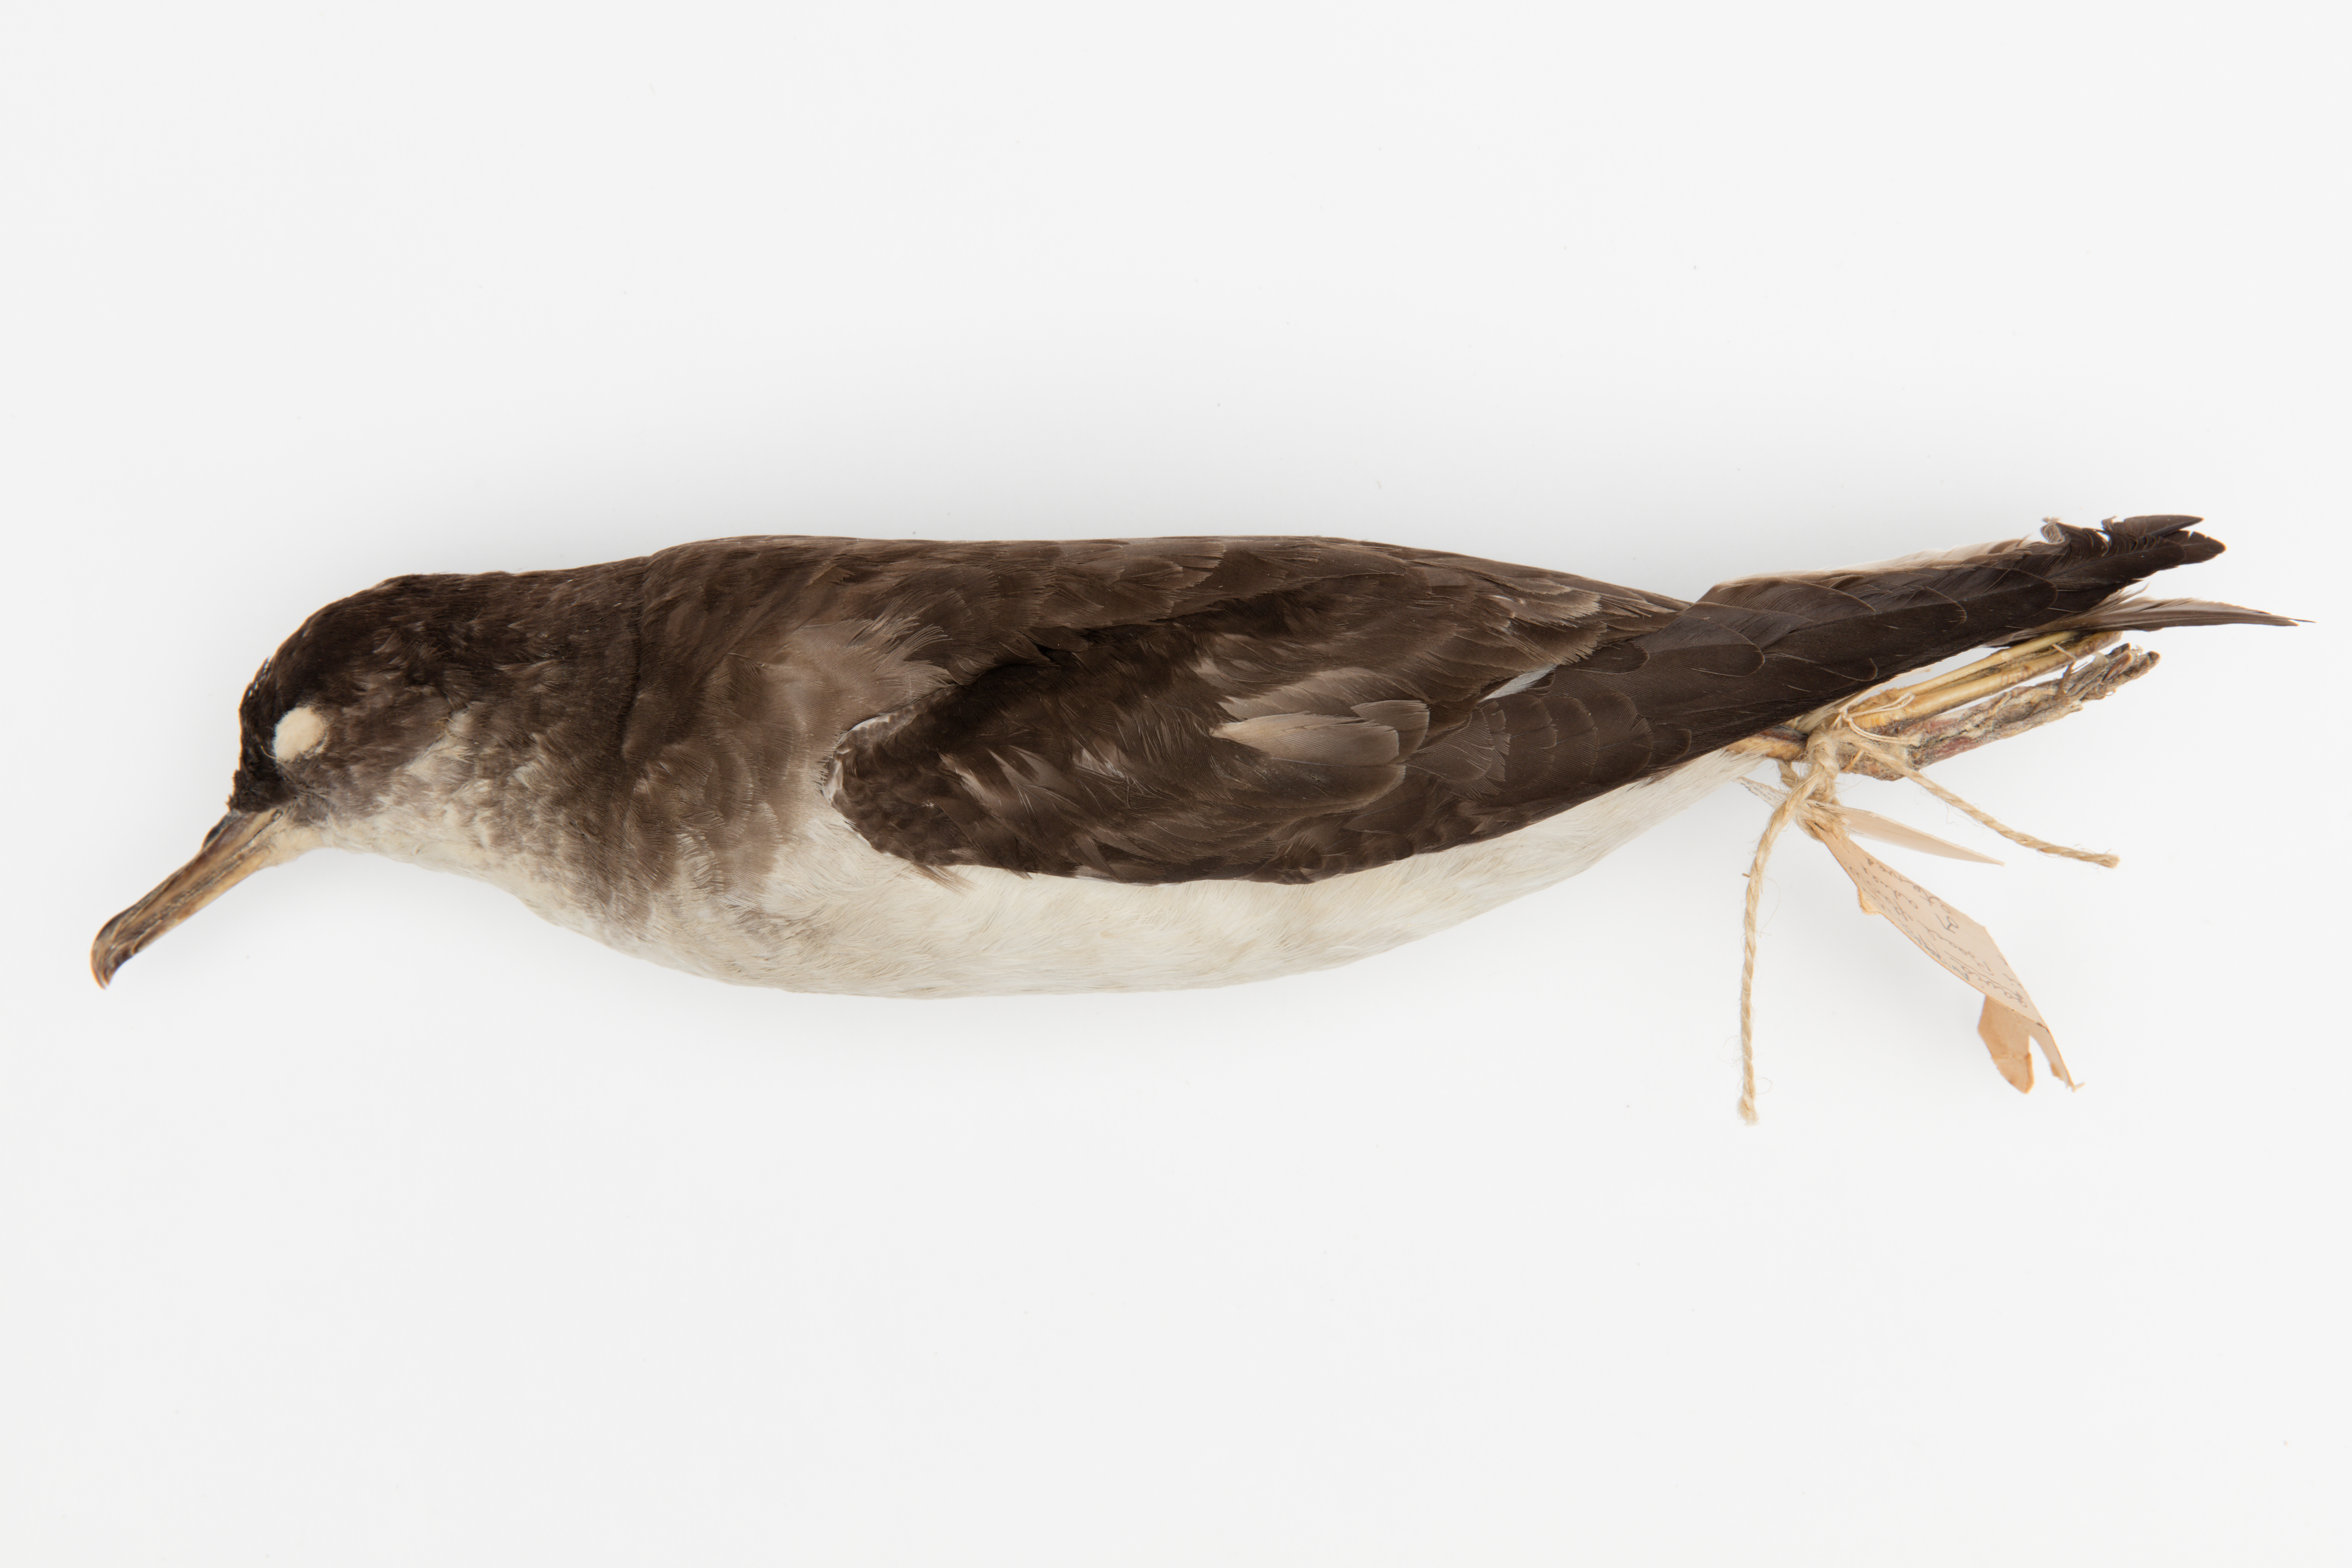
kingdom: Animalia
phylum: Chordata
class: Aves
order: Procellariiformes
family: Procellariidae
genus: Ardenna
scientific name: Ardenna
